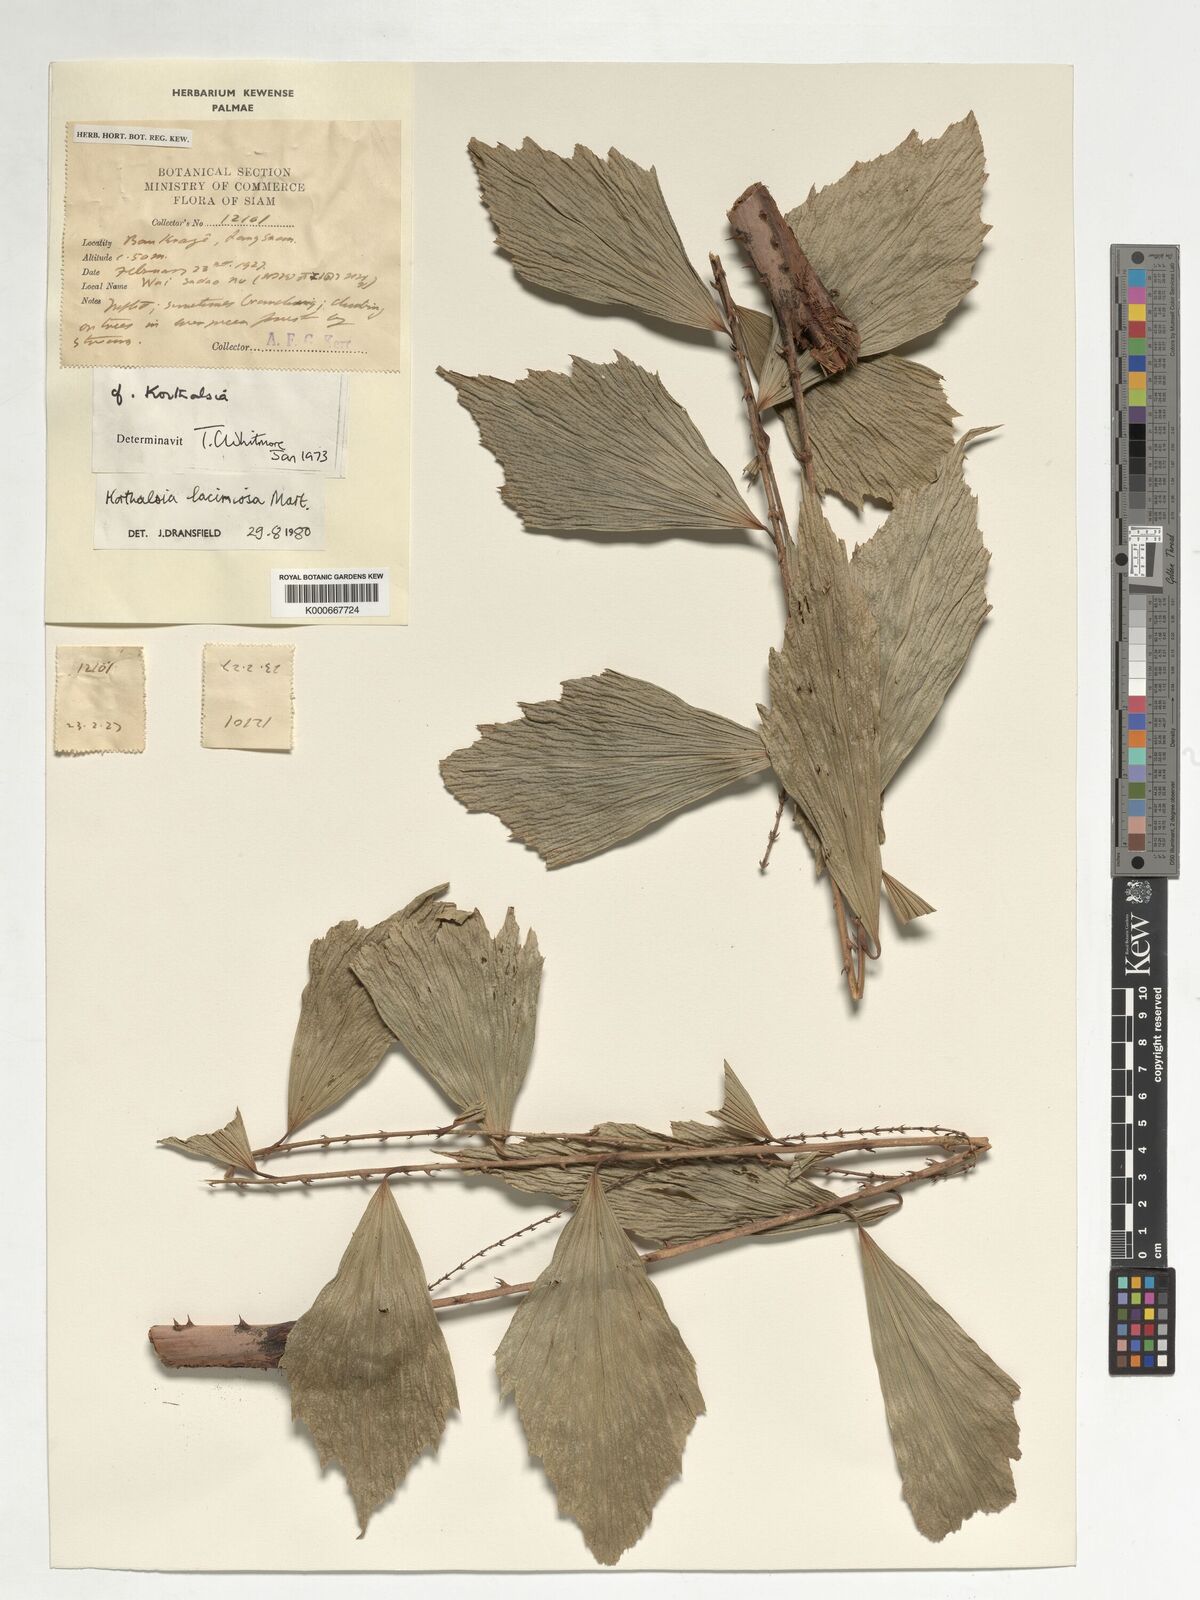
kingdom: Plantae
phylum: Tracheophyta
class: Liliopsida
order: Arecales
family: Arecaceae
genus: Korthalsia
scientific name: Korthalsia laciniosa
